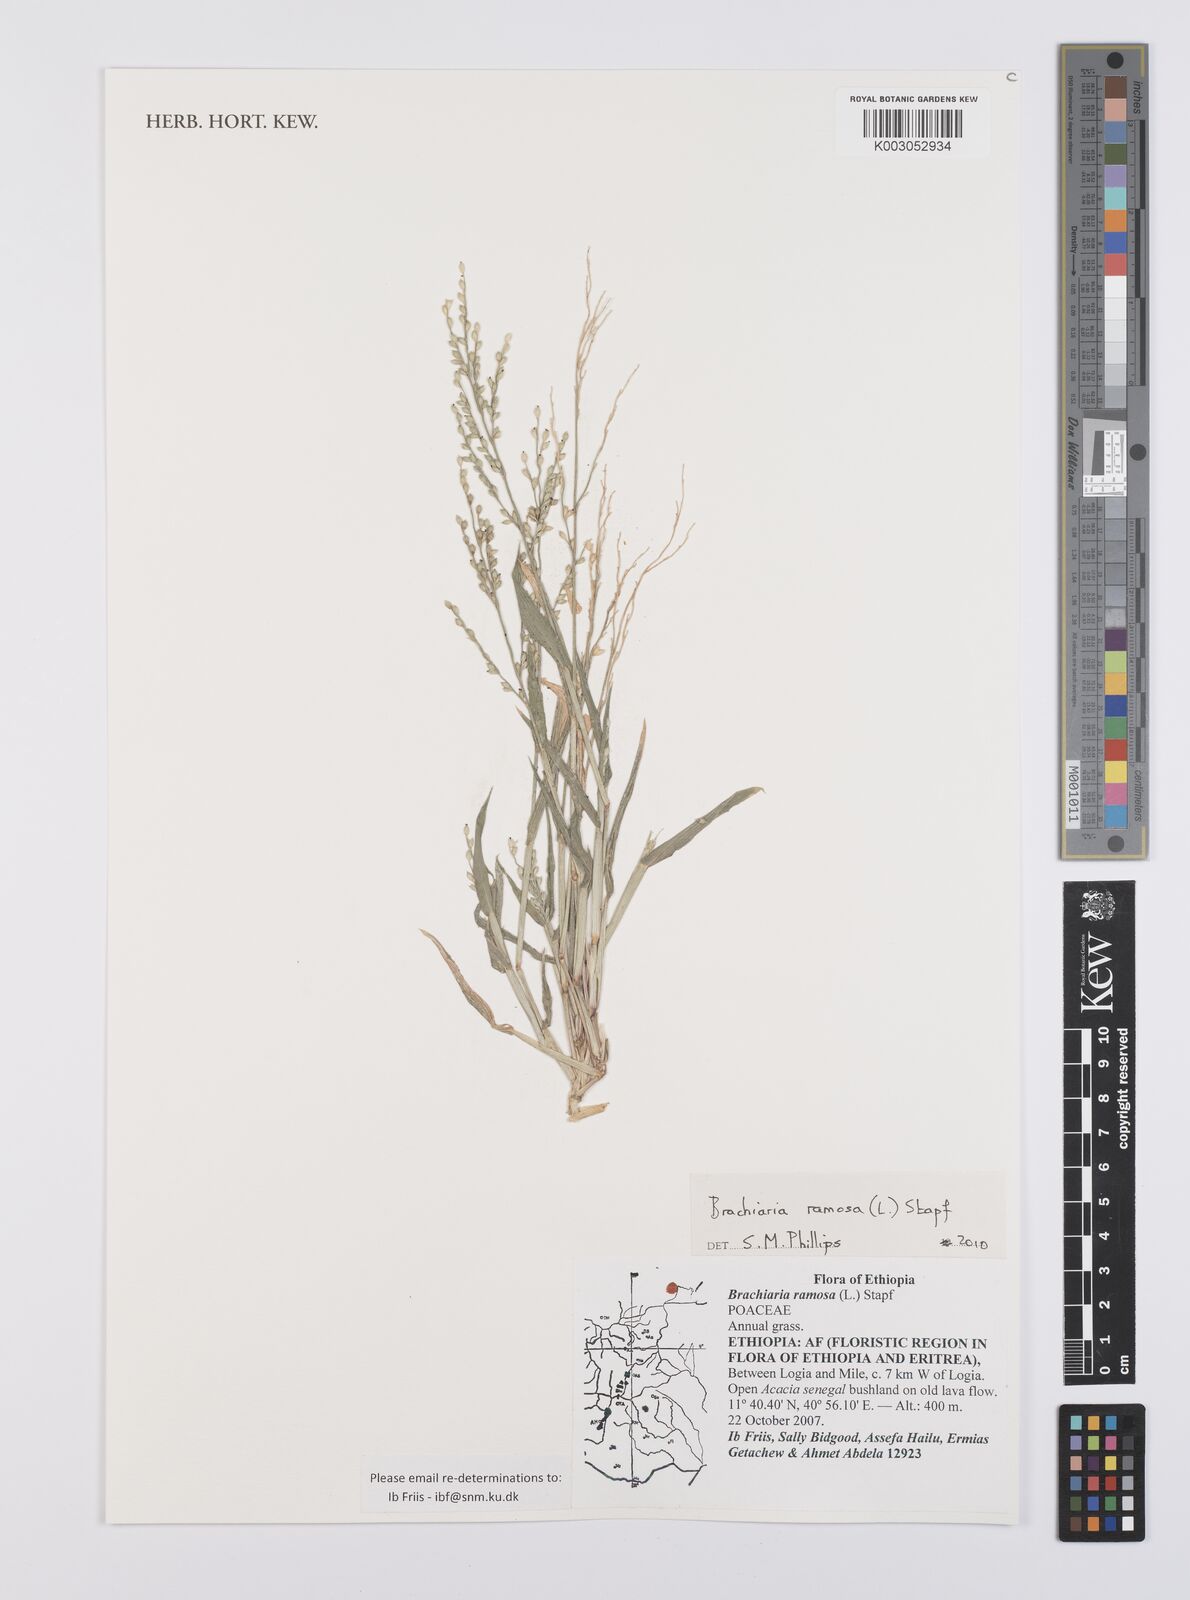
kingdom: Plantae
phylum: Tracheophyta
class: Liliopsida
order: Poales
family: Poaceae
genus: Urochloa
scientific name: Urochloa ramosa
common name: Browntop millet
